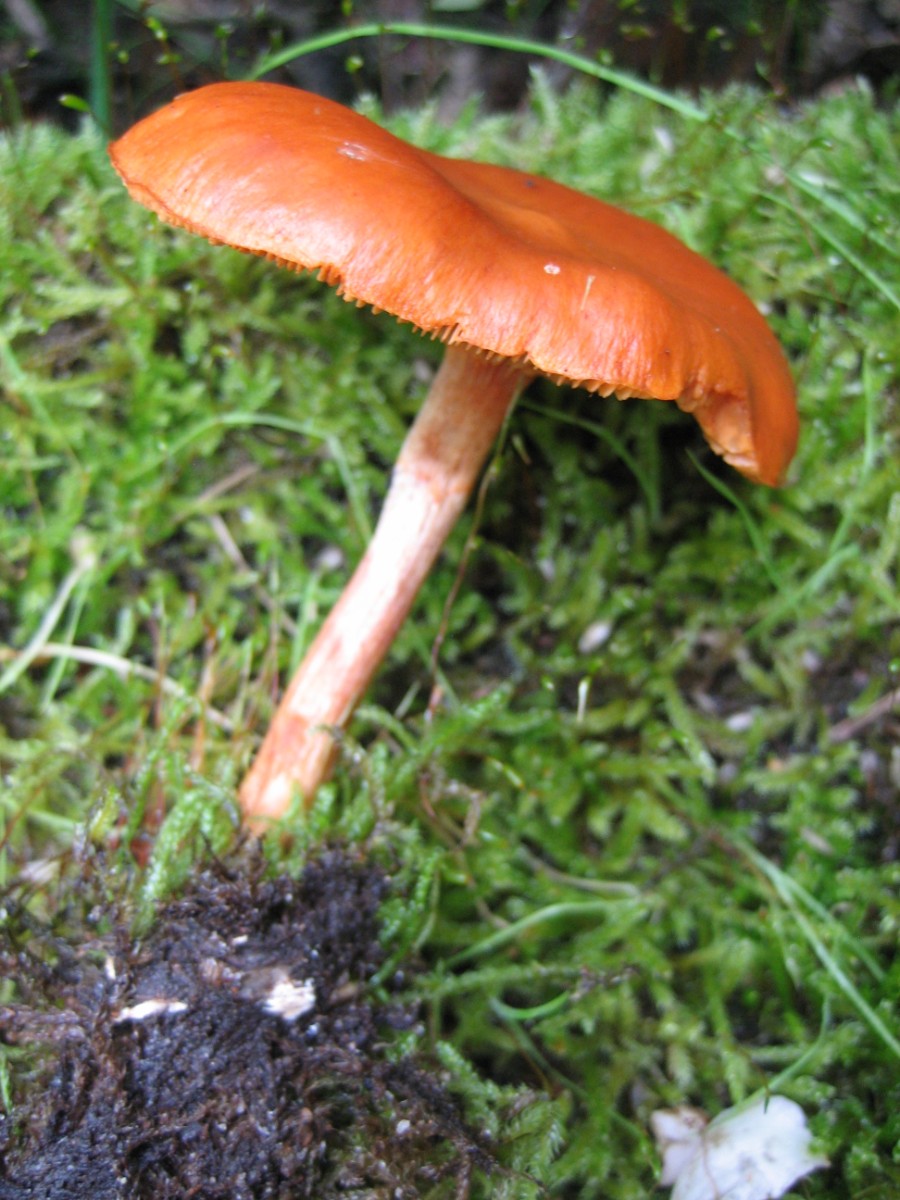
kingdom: Fungi
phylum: Basidiomycota
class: Agaricomycetes
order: Agaricales
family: Hymenogastraceae
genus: Gymnopilus
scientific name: Gymnopilus penetrans
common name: plettet flammehat
